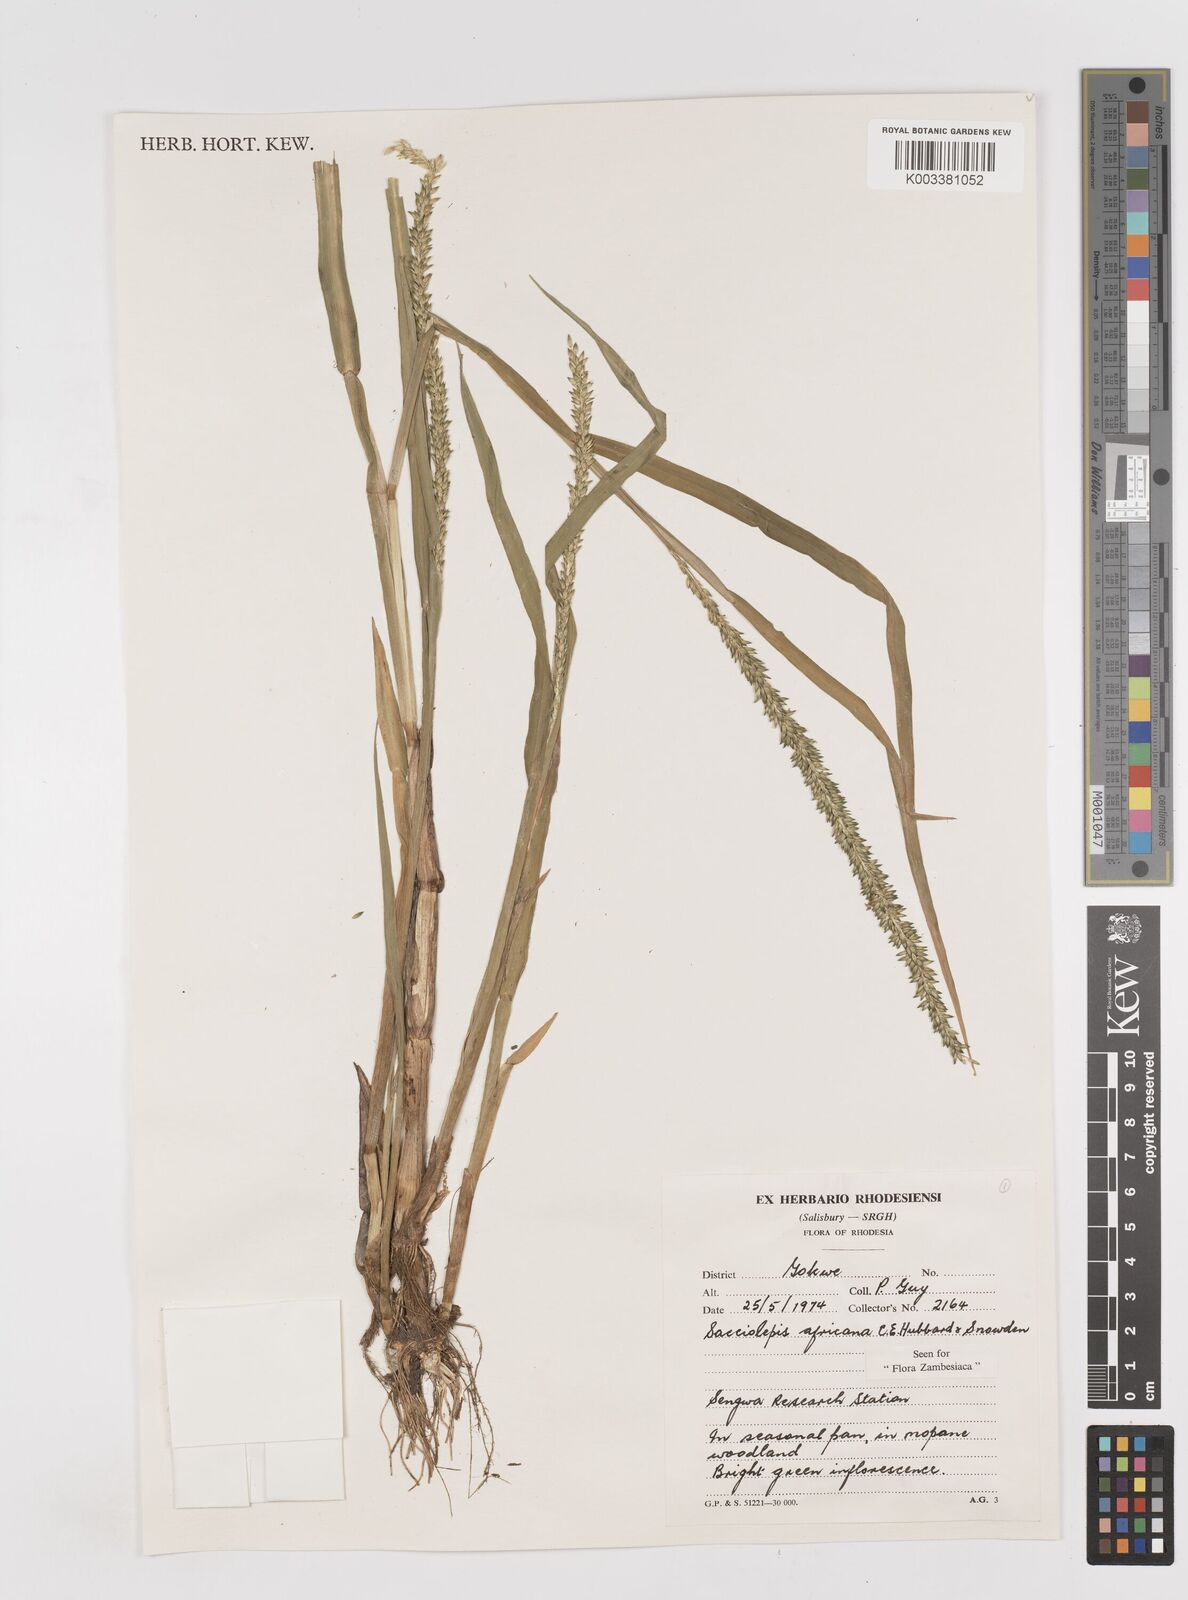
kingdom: Plantae
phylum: Tracheophyta
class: Liliopsida
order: Poales
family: Poaceae
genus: Sacciolepis
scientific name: Sacciolepis africana
